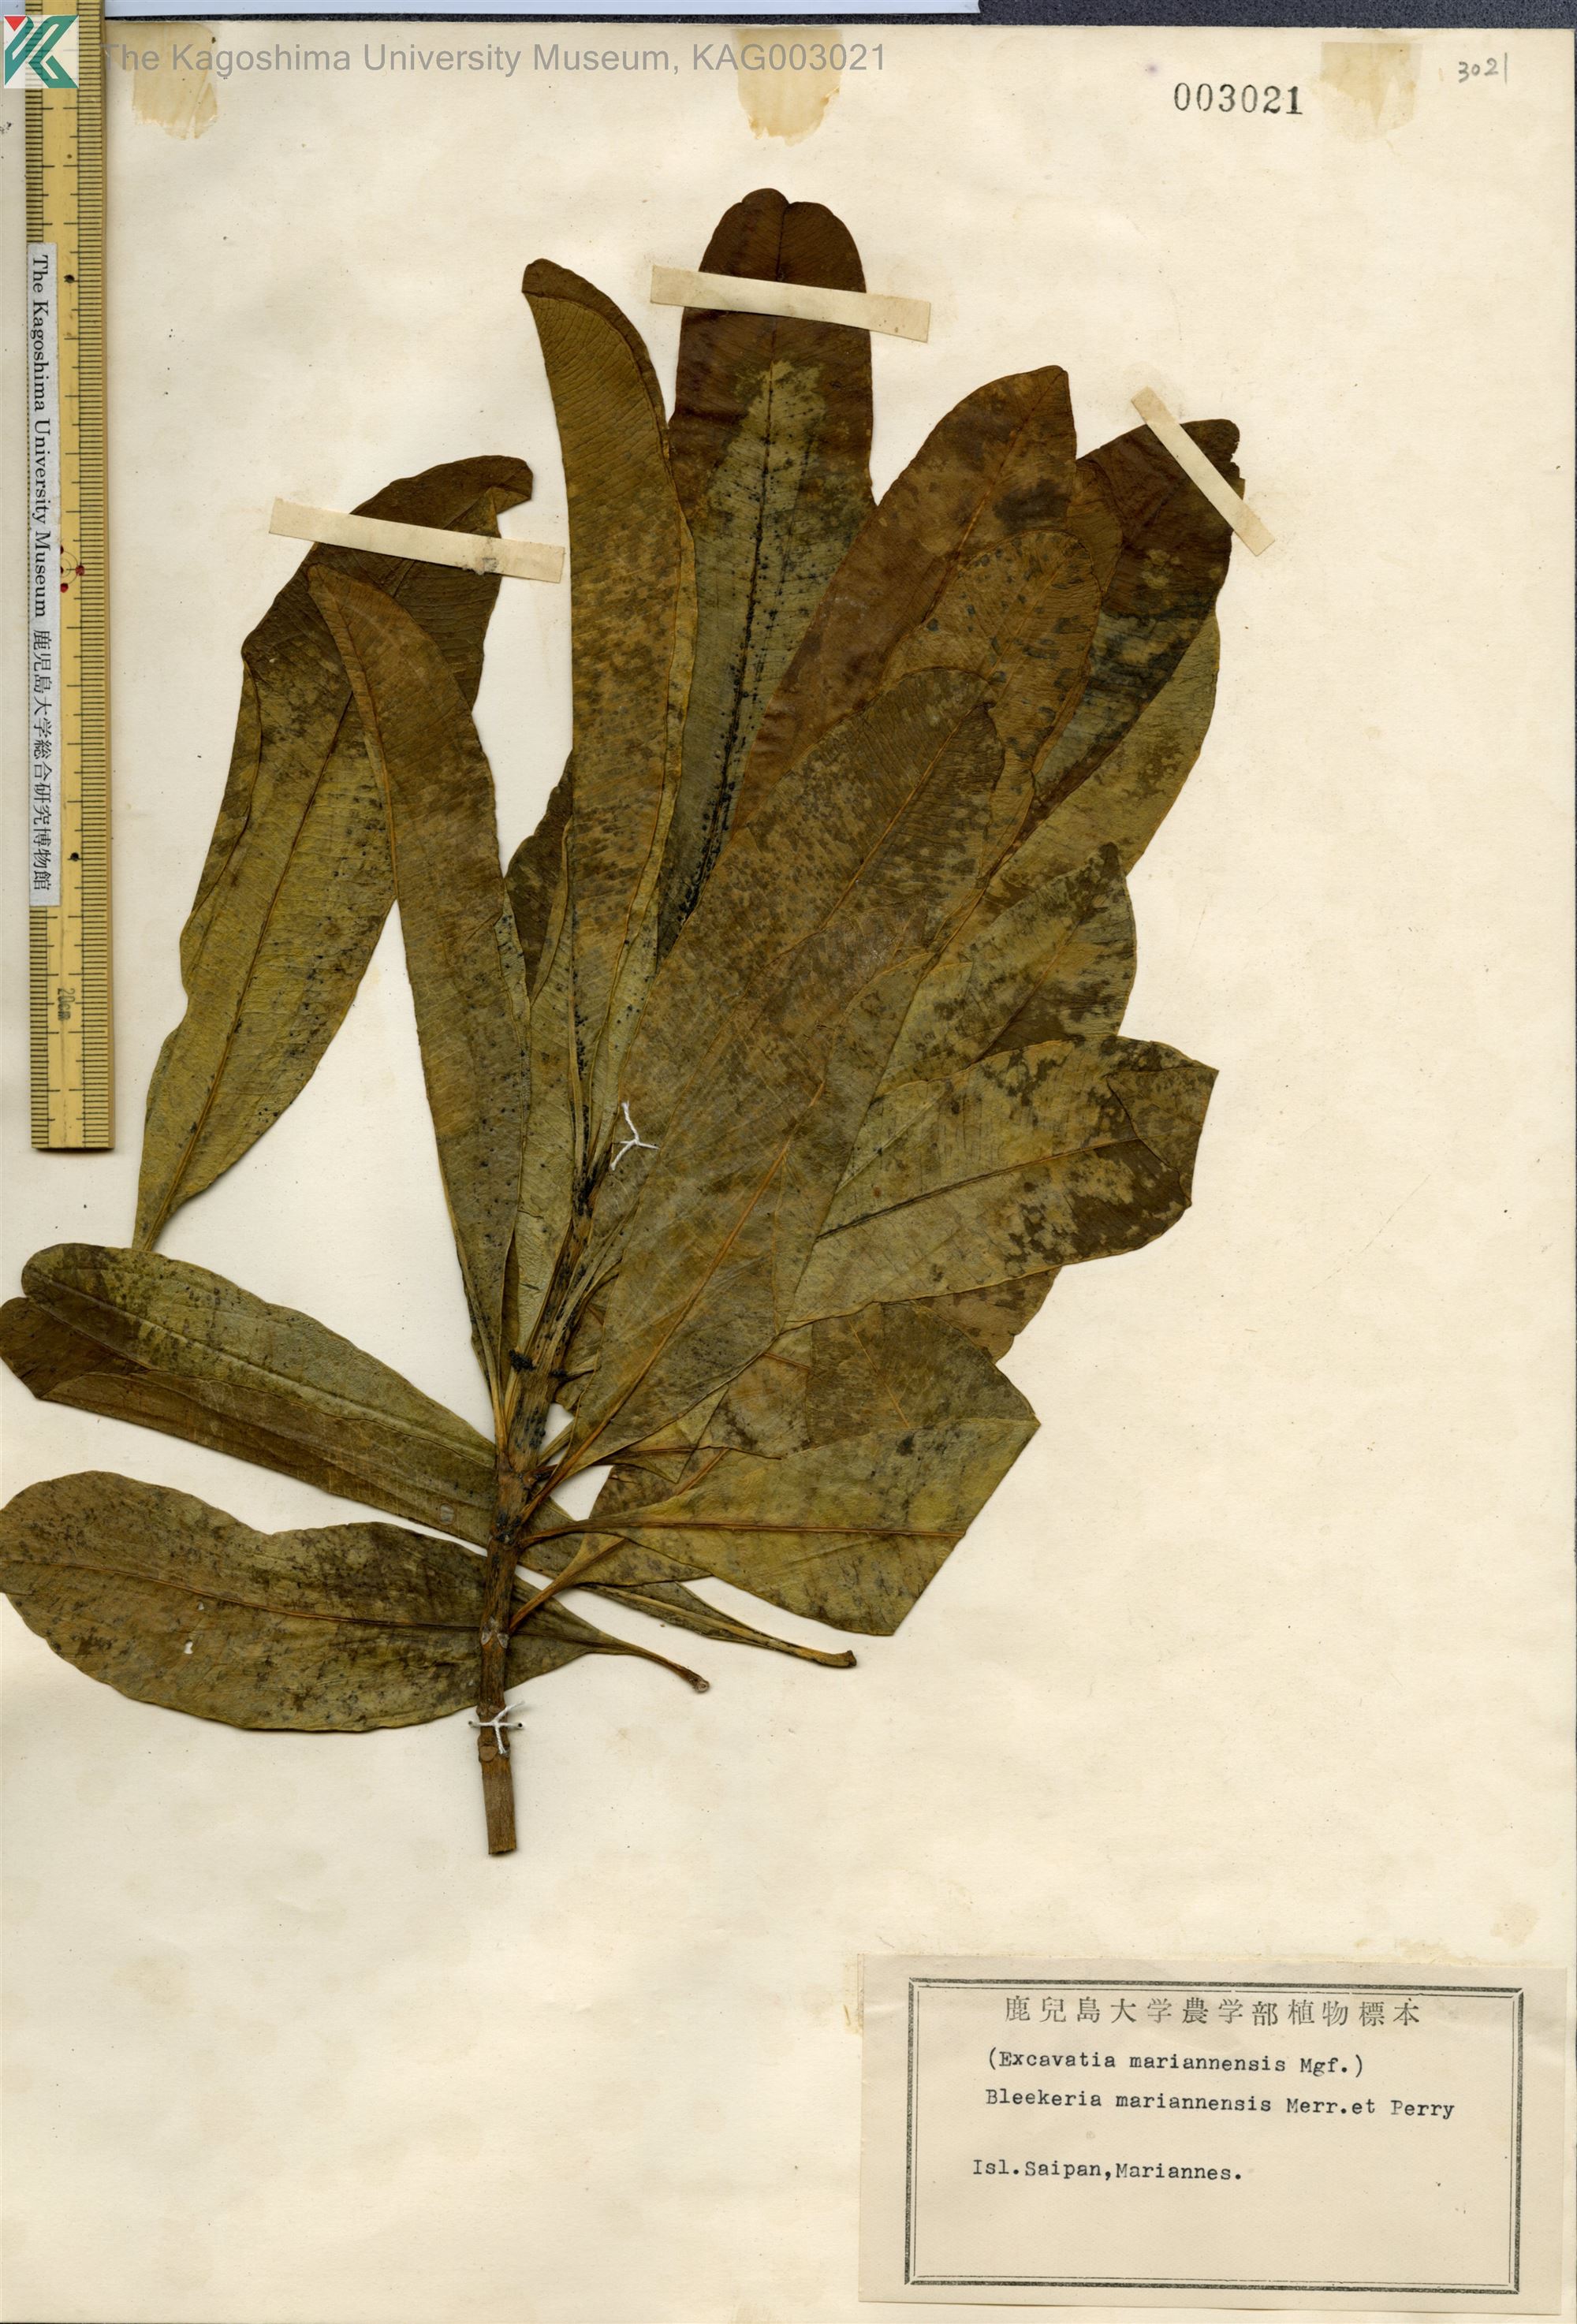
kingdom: Plantae
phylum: Tracheophyta
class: Magnoliopsida
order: Gentianales
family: Apocynaceae
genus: Ochrosia
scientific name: Ochrosia mariannensis
